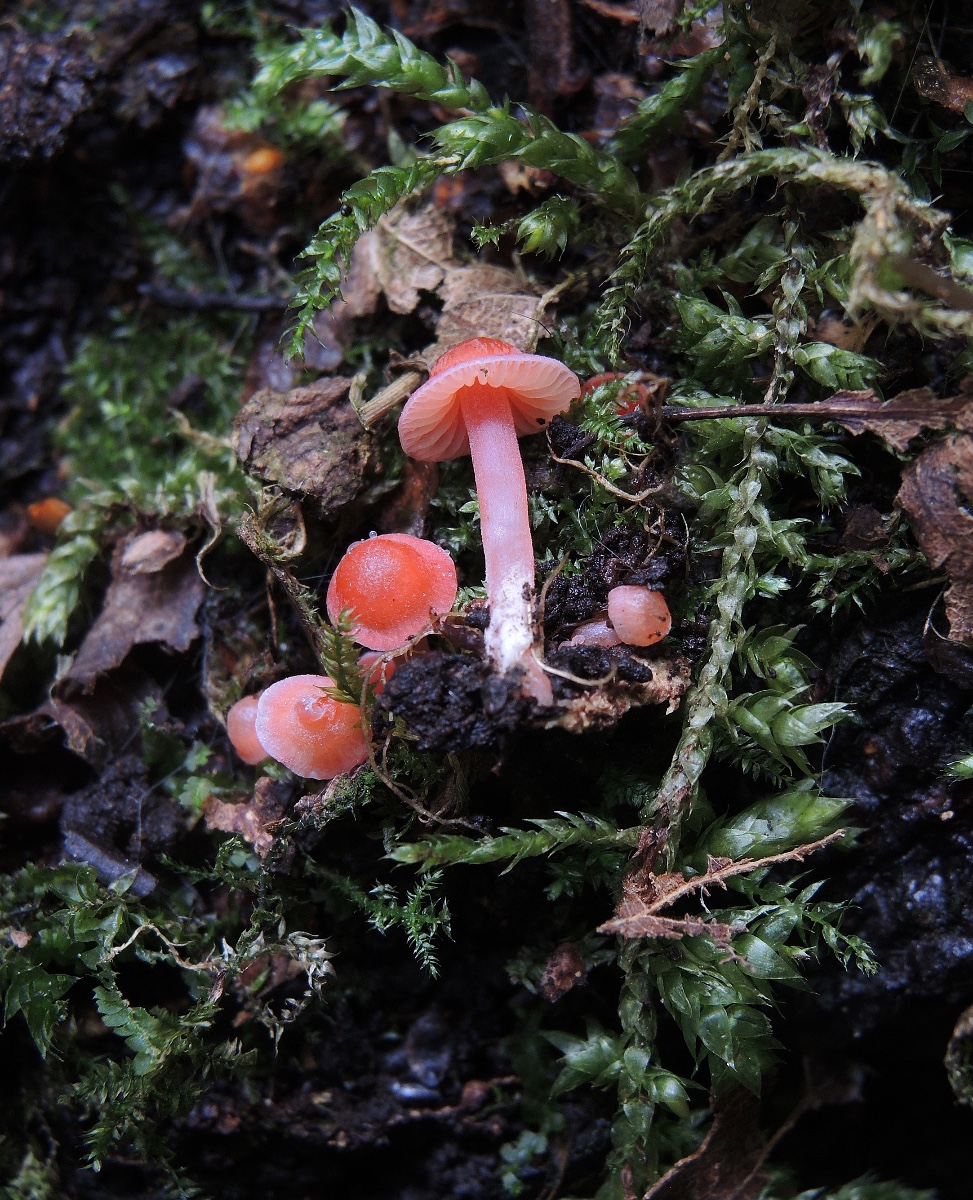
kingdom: Fungi
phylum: Basidiomycota
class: Agaricomycetes
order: Agaricales
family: Mycenaceae
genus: Mycena
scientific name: Mycena coccinea
